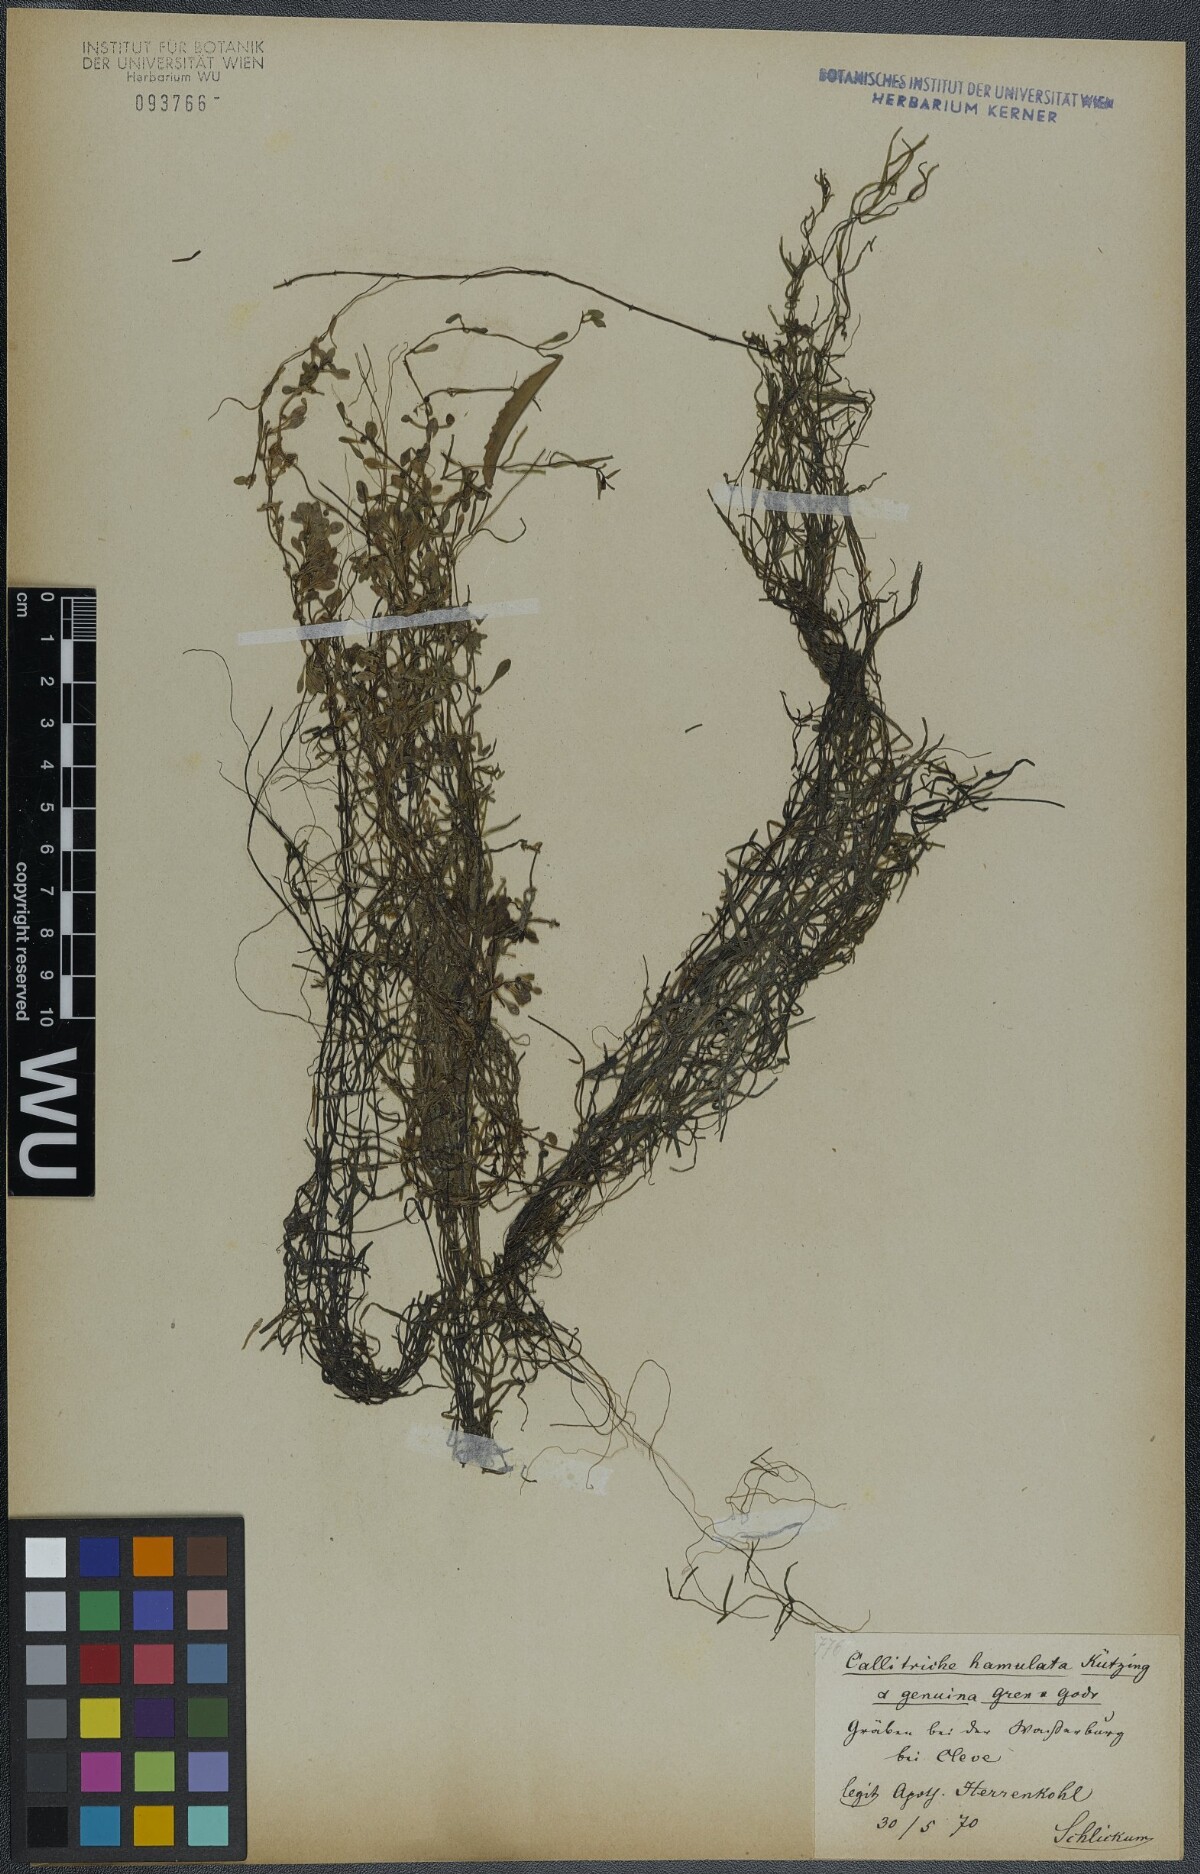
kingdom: Plantae
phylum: Tracheophyta
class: Magnoliopsida
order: Lamiales
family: Plantaginaceae
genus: Callitriche
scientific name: Callitriche hamulata
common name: Intermediate water-starwort
